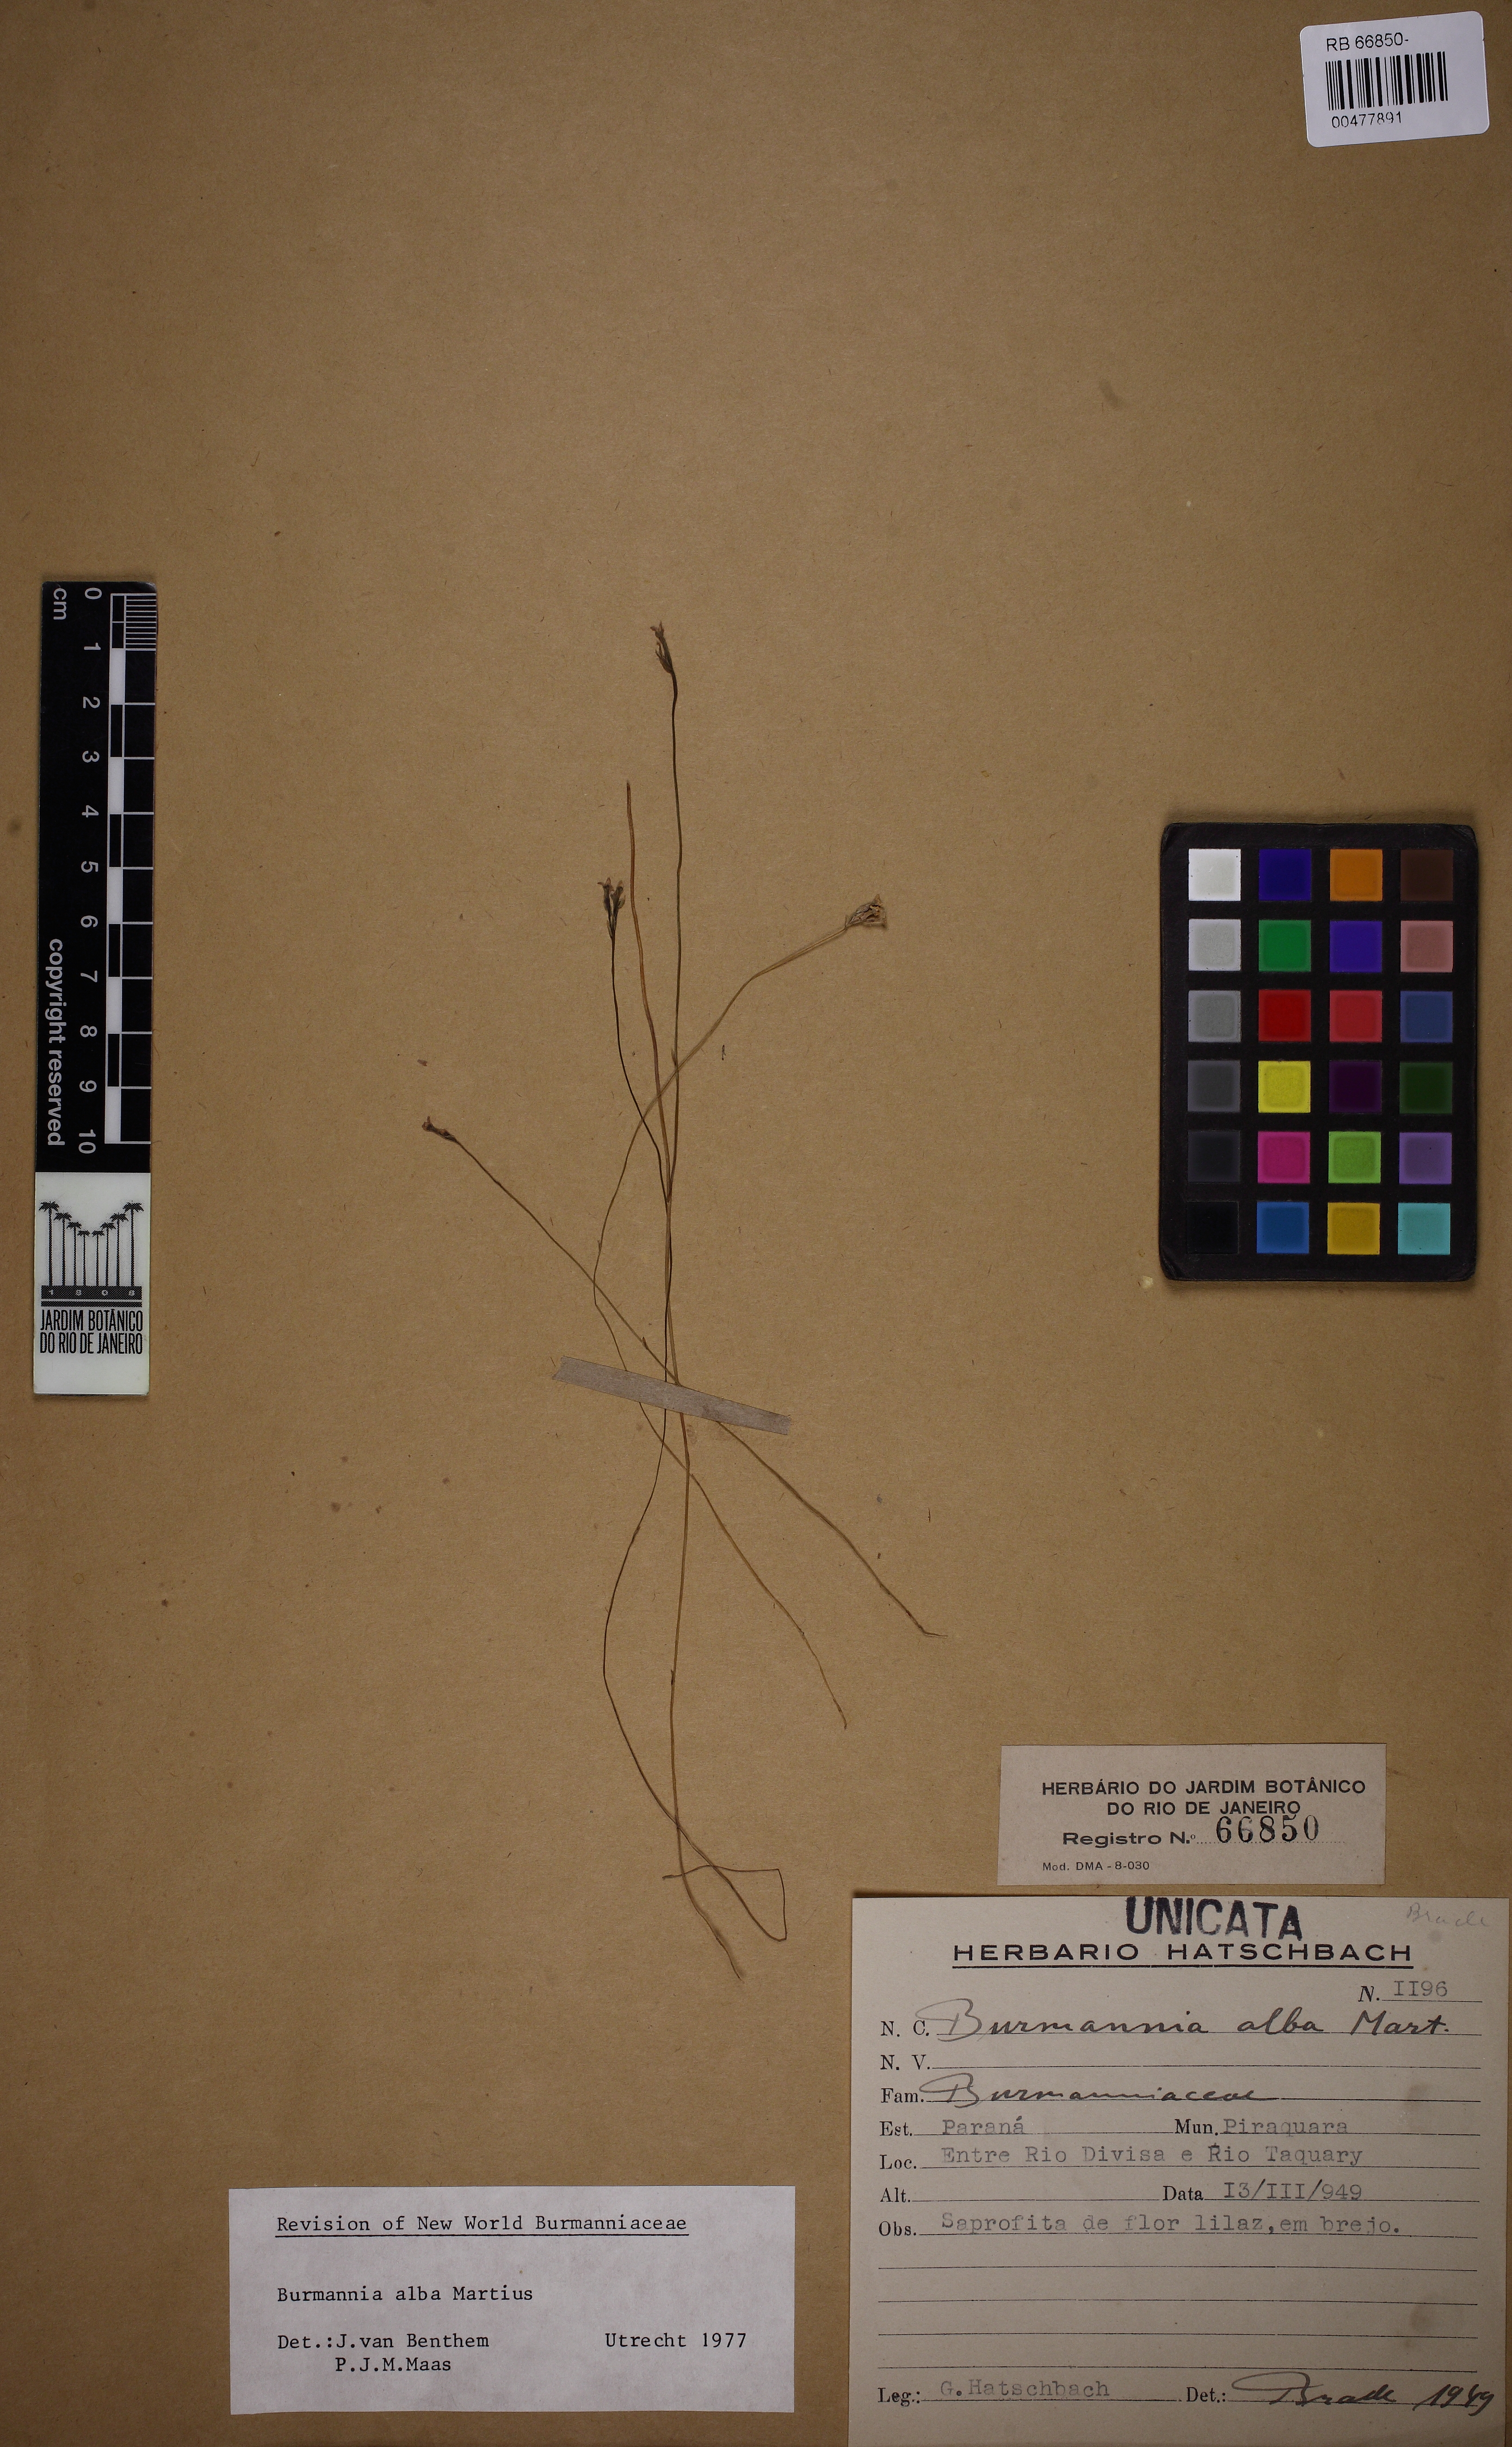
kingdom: Plantae
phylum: Tracheophyta
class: Liliopsida
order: Dioscoreales
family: Burmanniaceae
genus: Burmannia
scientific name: Burmannia alba
